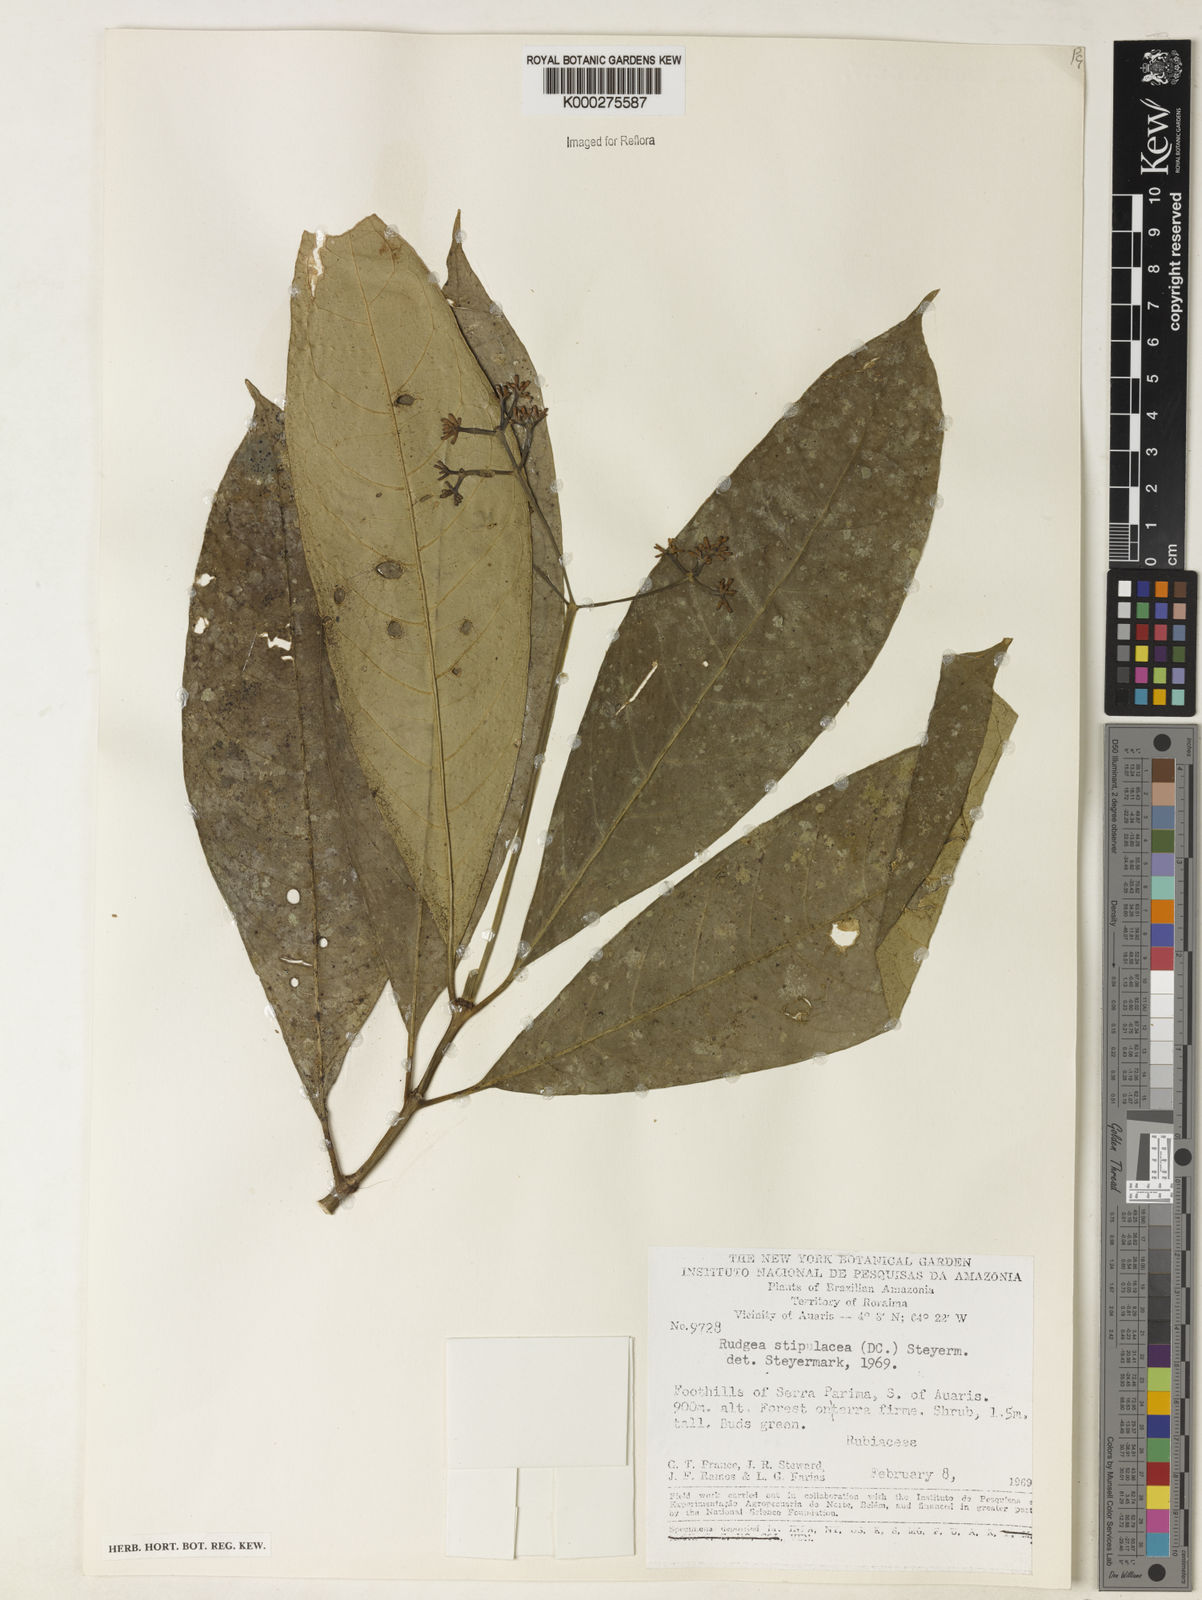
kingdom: Plantae
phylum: Tracheophyta
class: Magnoliopsida
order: Gentianales
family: Rubiaceae
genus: Rudgea
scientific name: Rudgea stipulacea
